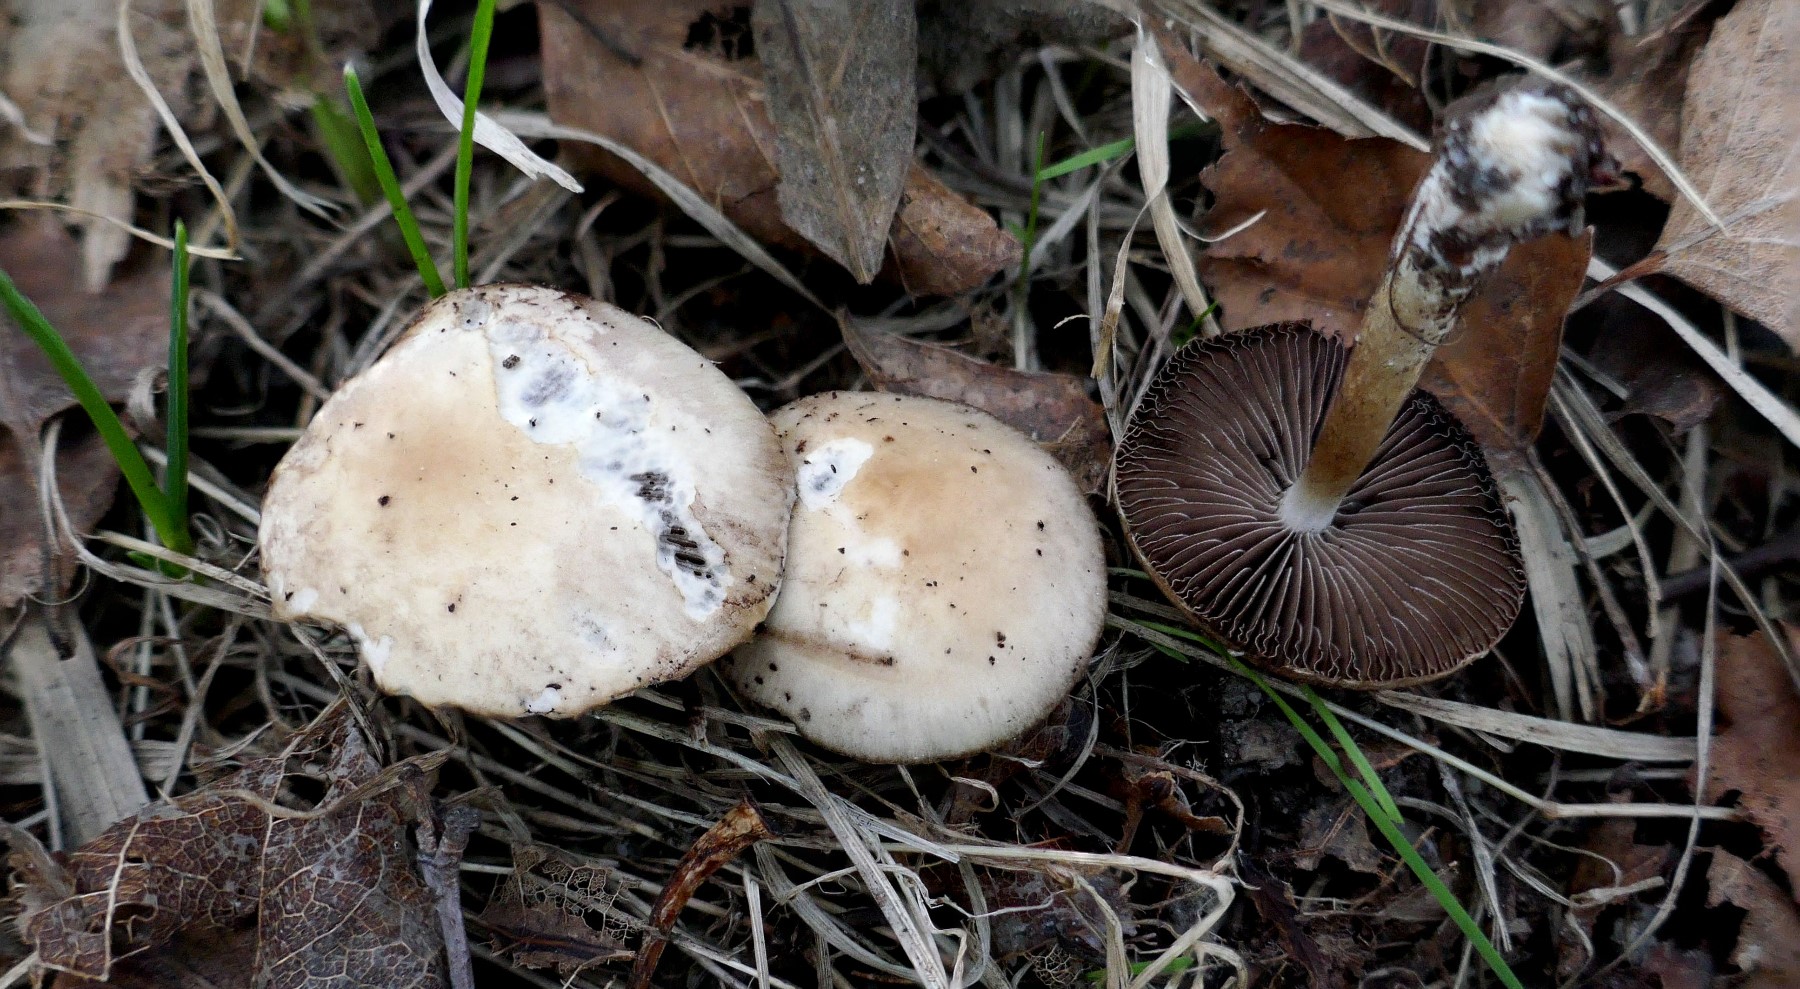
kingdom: Fungi
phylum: Basidiomycota
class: Agaricomycetes
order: Agaricales
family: Psathyrellaceae
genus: Psathyrella
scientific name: Psathyrella
